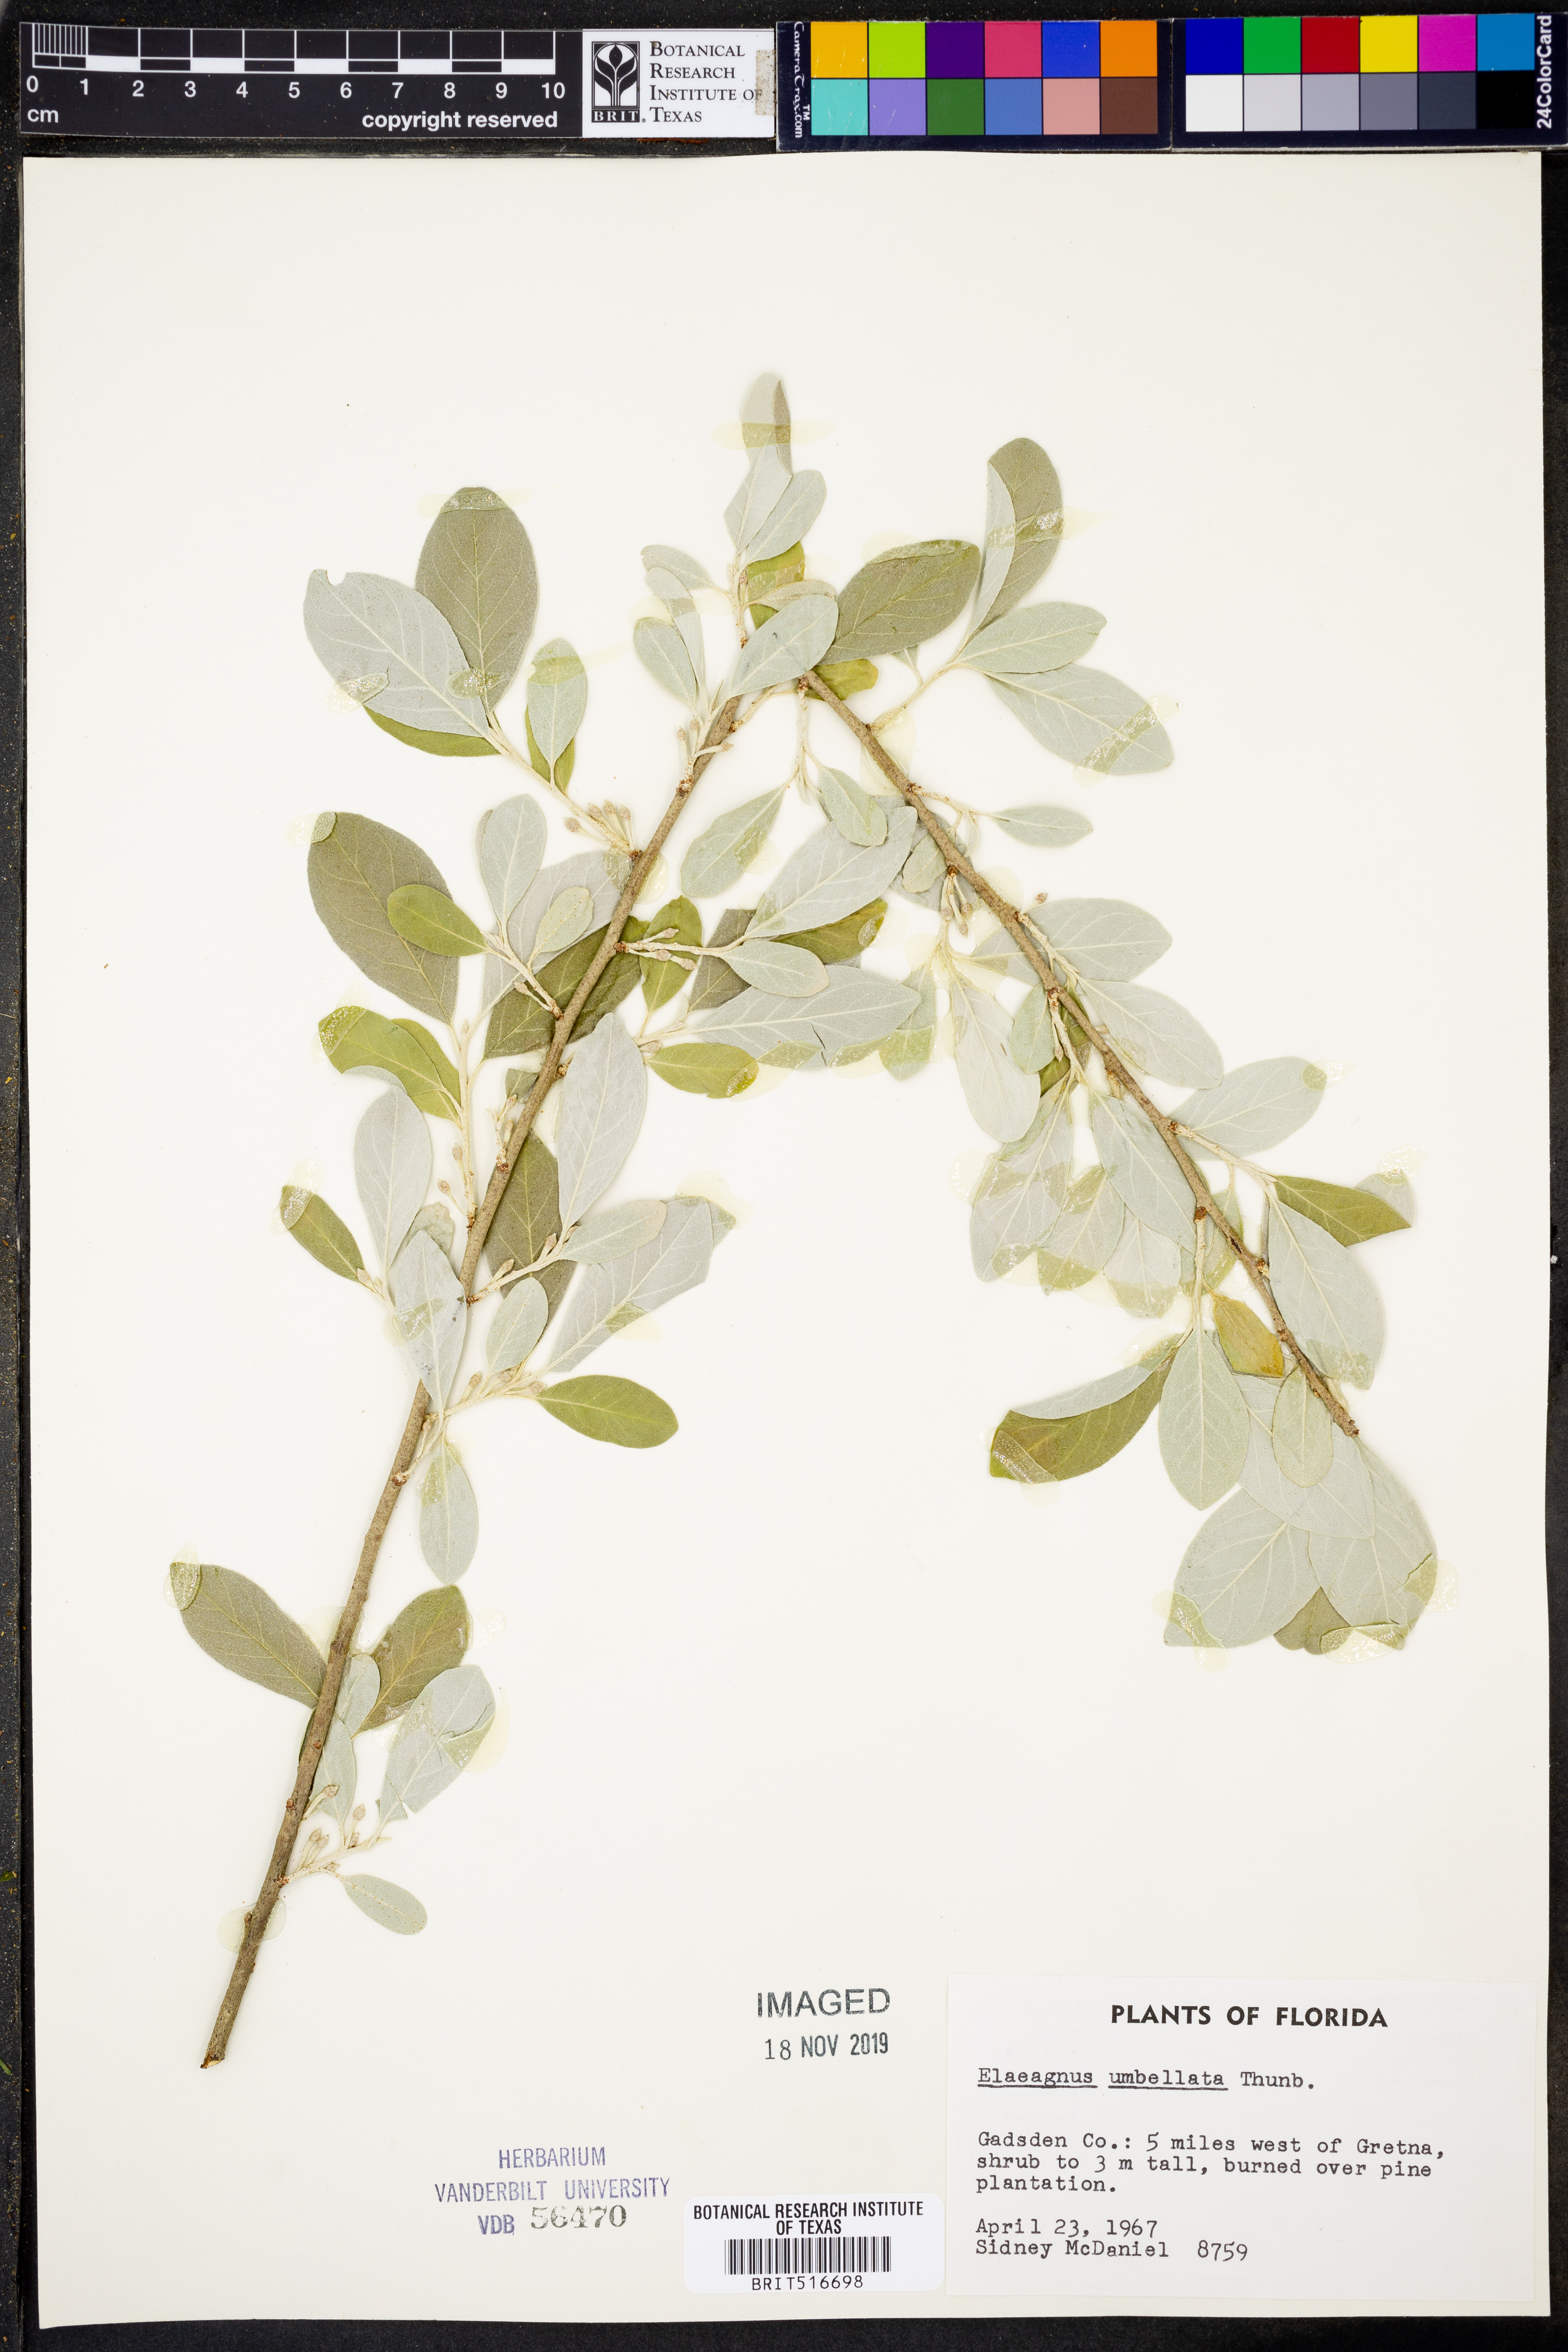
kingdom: Plantae
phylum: Tracheophyta
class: Magnoliopsida
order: Rosales
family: Elaeagnaceae
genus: Elaeagnus
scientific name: Elaeagnus umbellata
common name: Autumn olive
